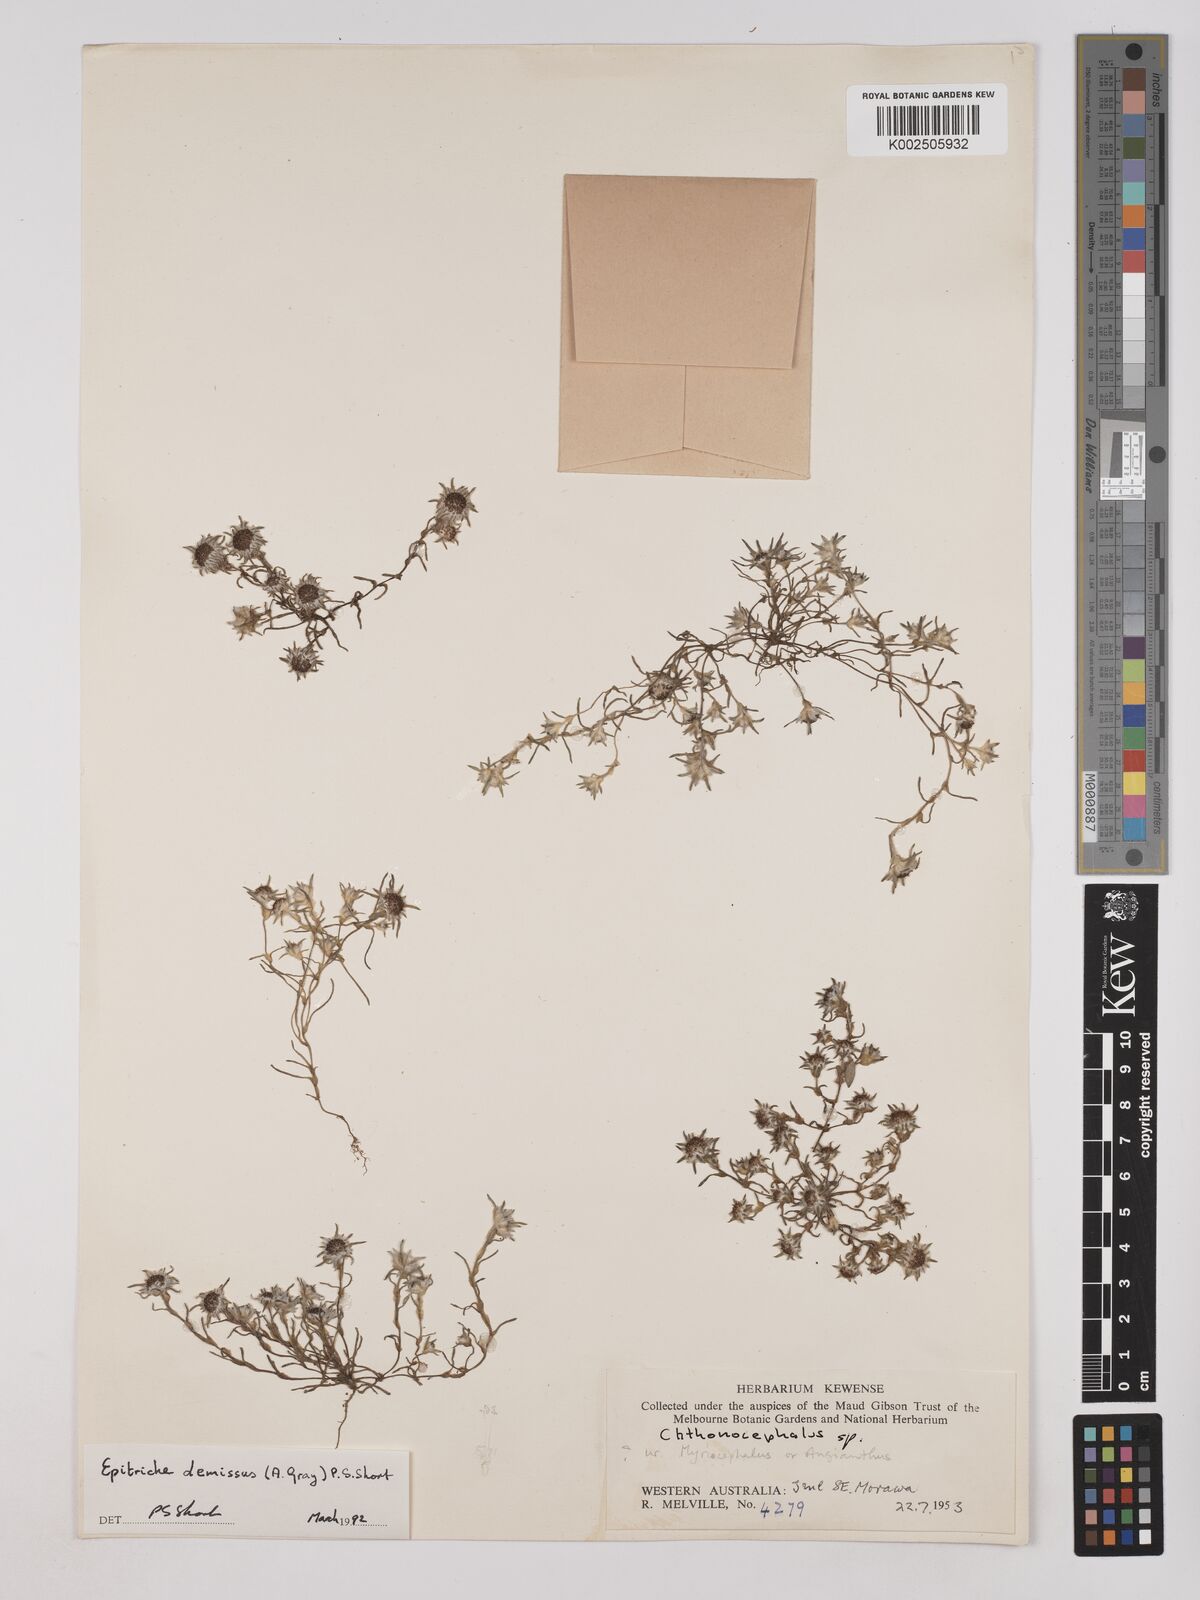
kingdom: Plantae
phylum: Tracheophyta
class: Magnoliopsida
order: Asterales
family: Asteraceae
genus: Epitriche
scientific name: Epitriche demissus
